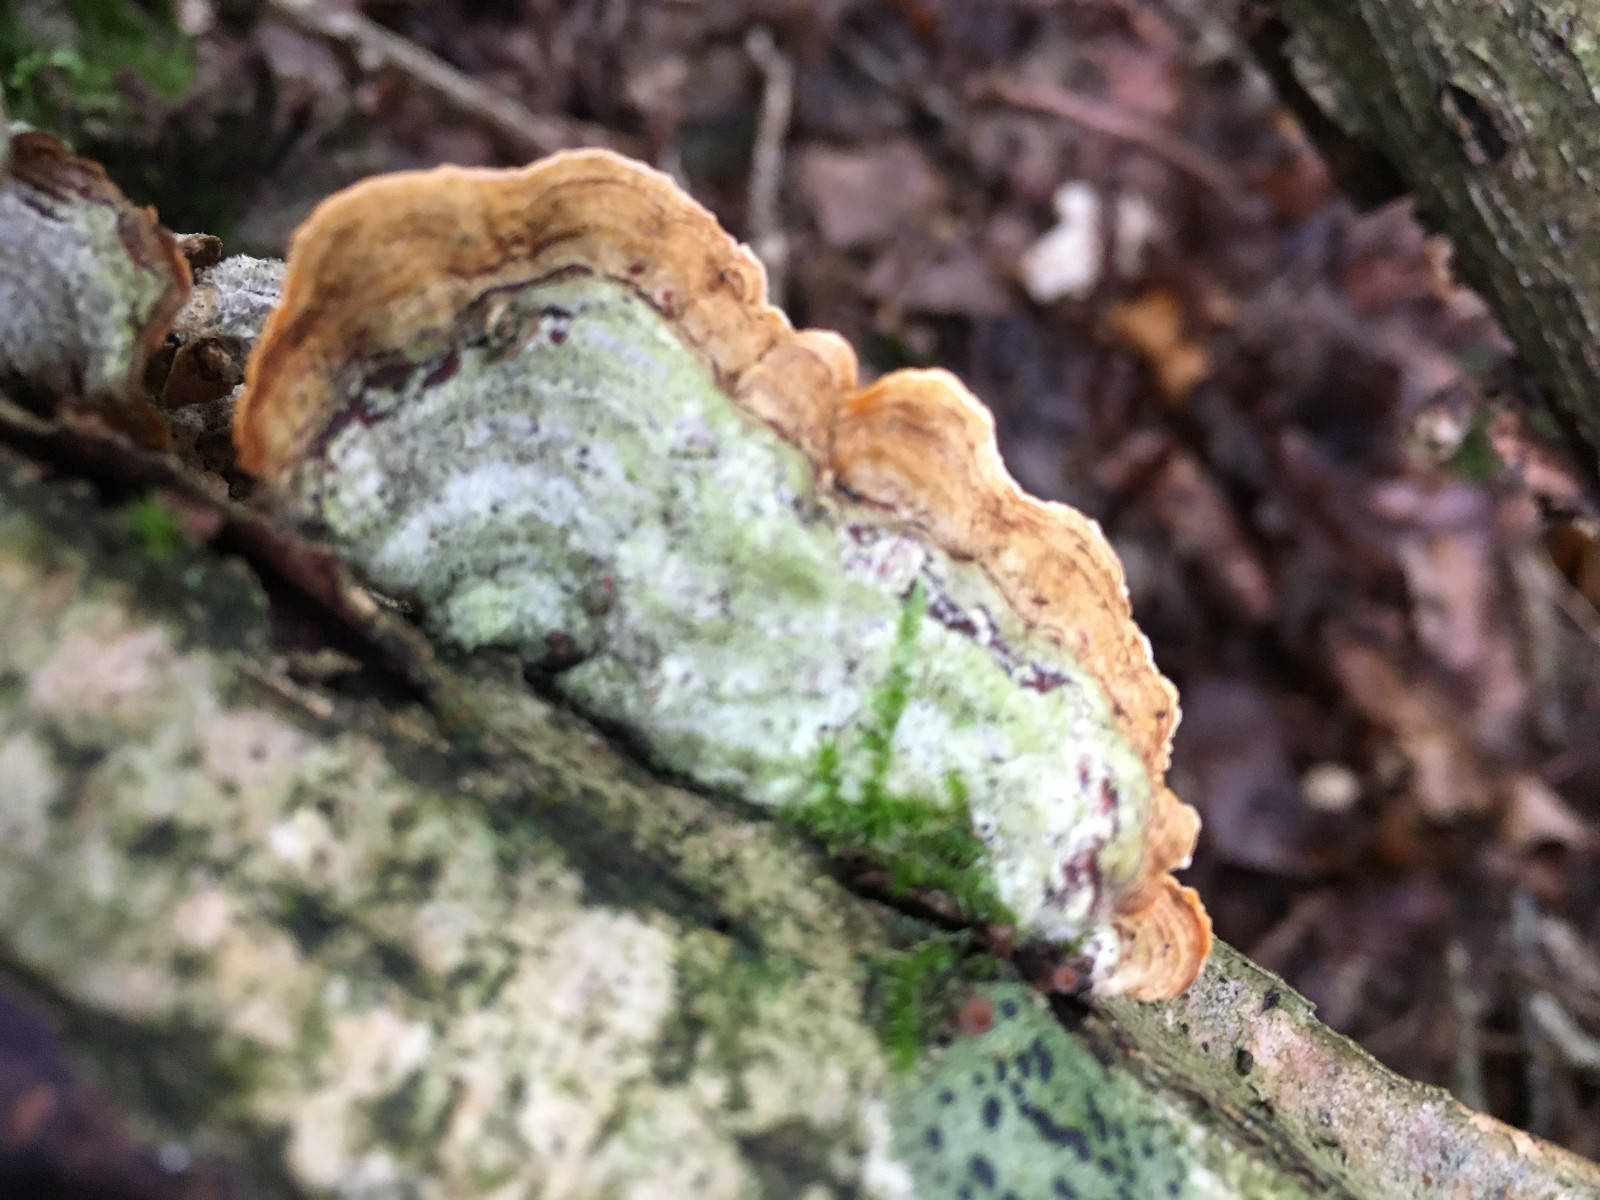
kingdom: Fungi
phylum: Basidiomycota
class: Agaricomycetes
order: Russulales
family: Stereaceae
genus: Stereum
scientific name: Stereum hirsutum
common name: håret lædersvamp
